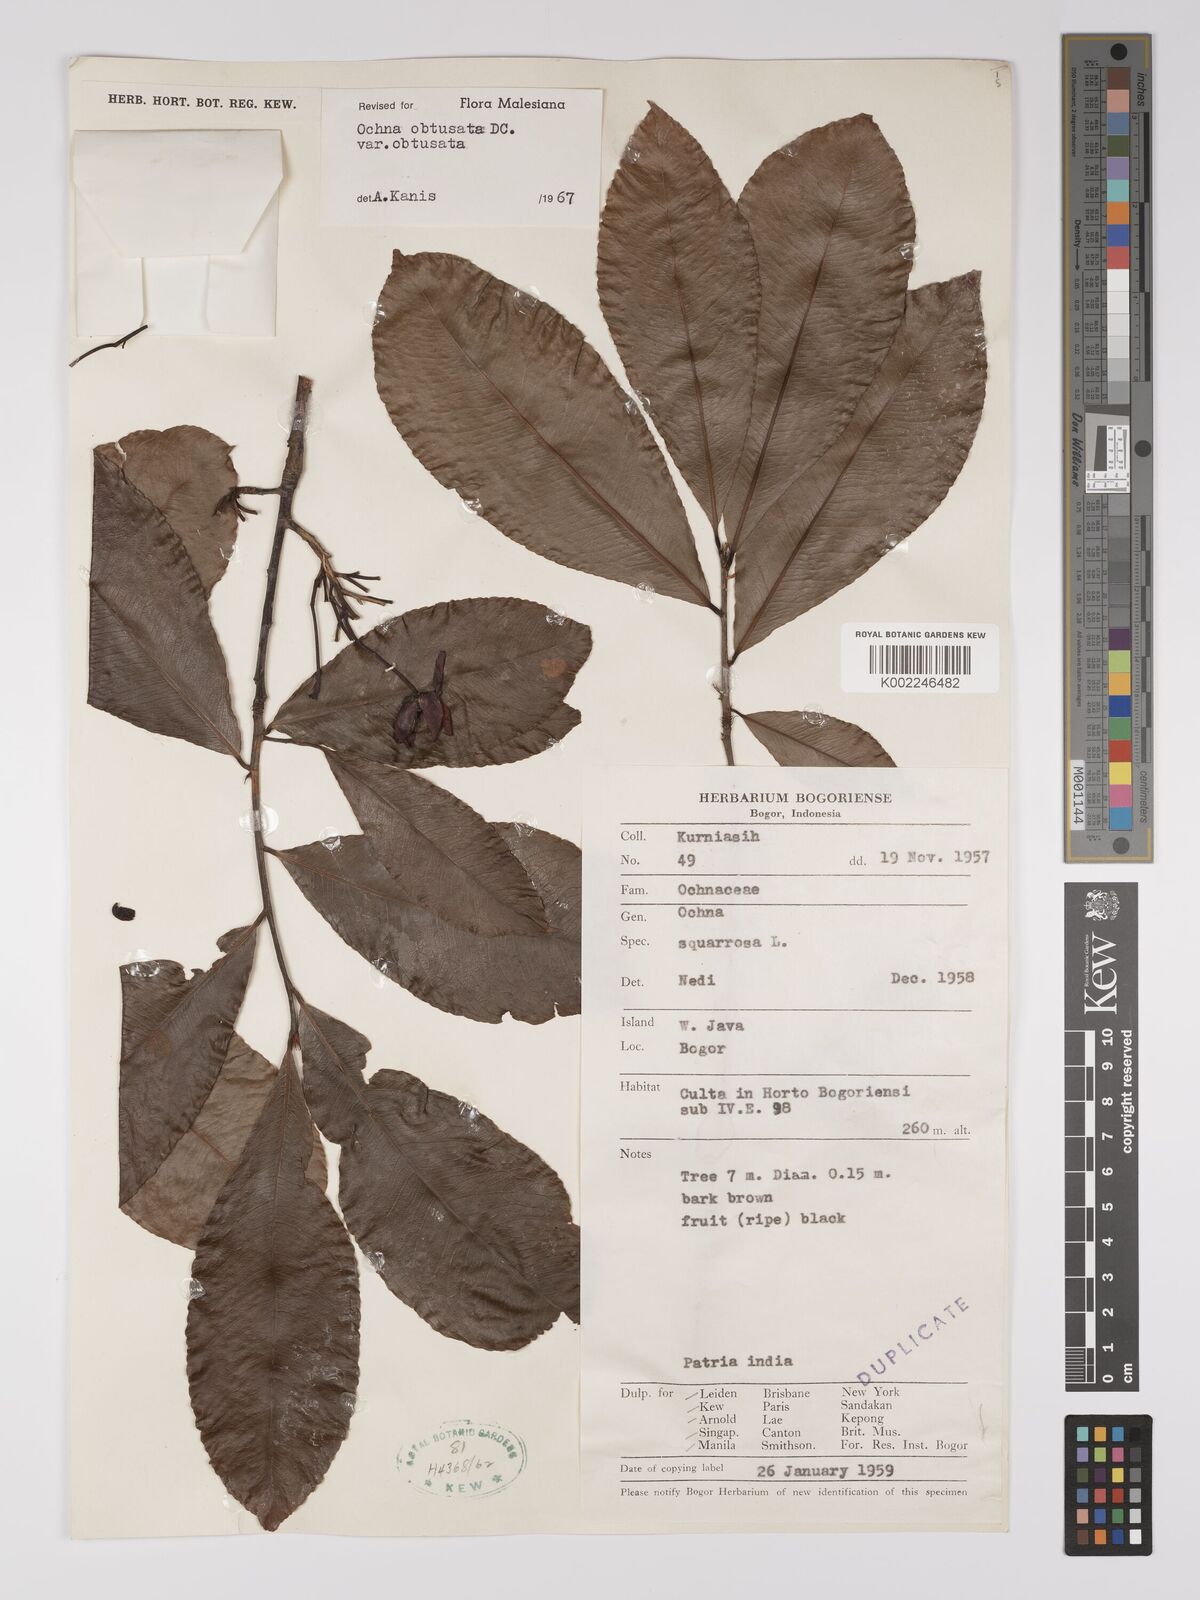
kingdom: Plantae
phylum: Tracheophyta
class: Magnoliopsida
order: Malpighiales
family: Ochnaceae
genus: Ochna
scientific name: Ochna obtusata
